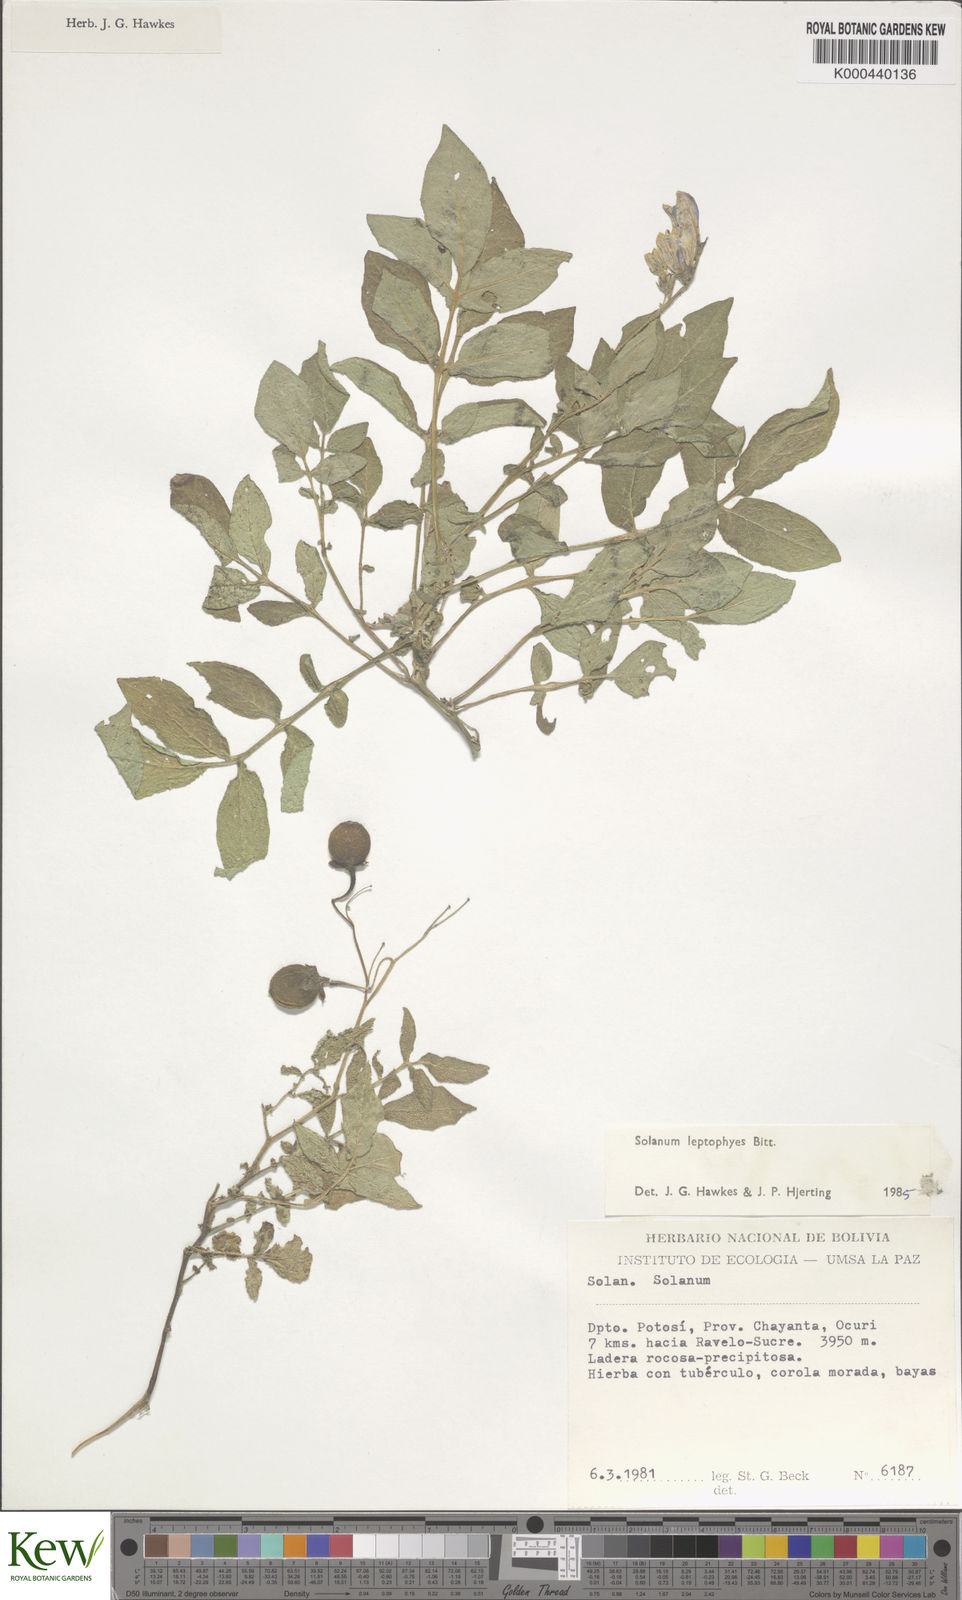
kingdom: Plantae
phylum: Tracheophyta
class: Magnoliopsida
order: Solanales
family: Solanaceae
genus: Solanum
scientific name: Solanum brevicaule
